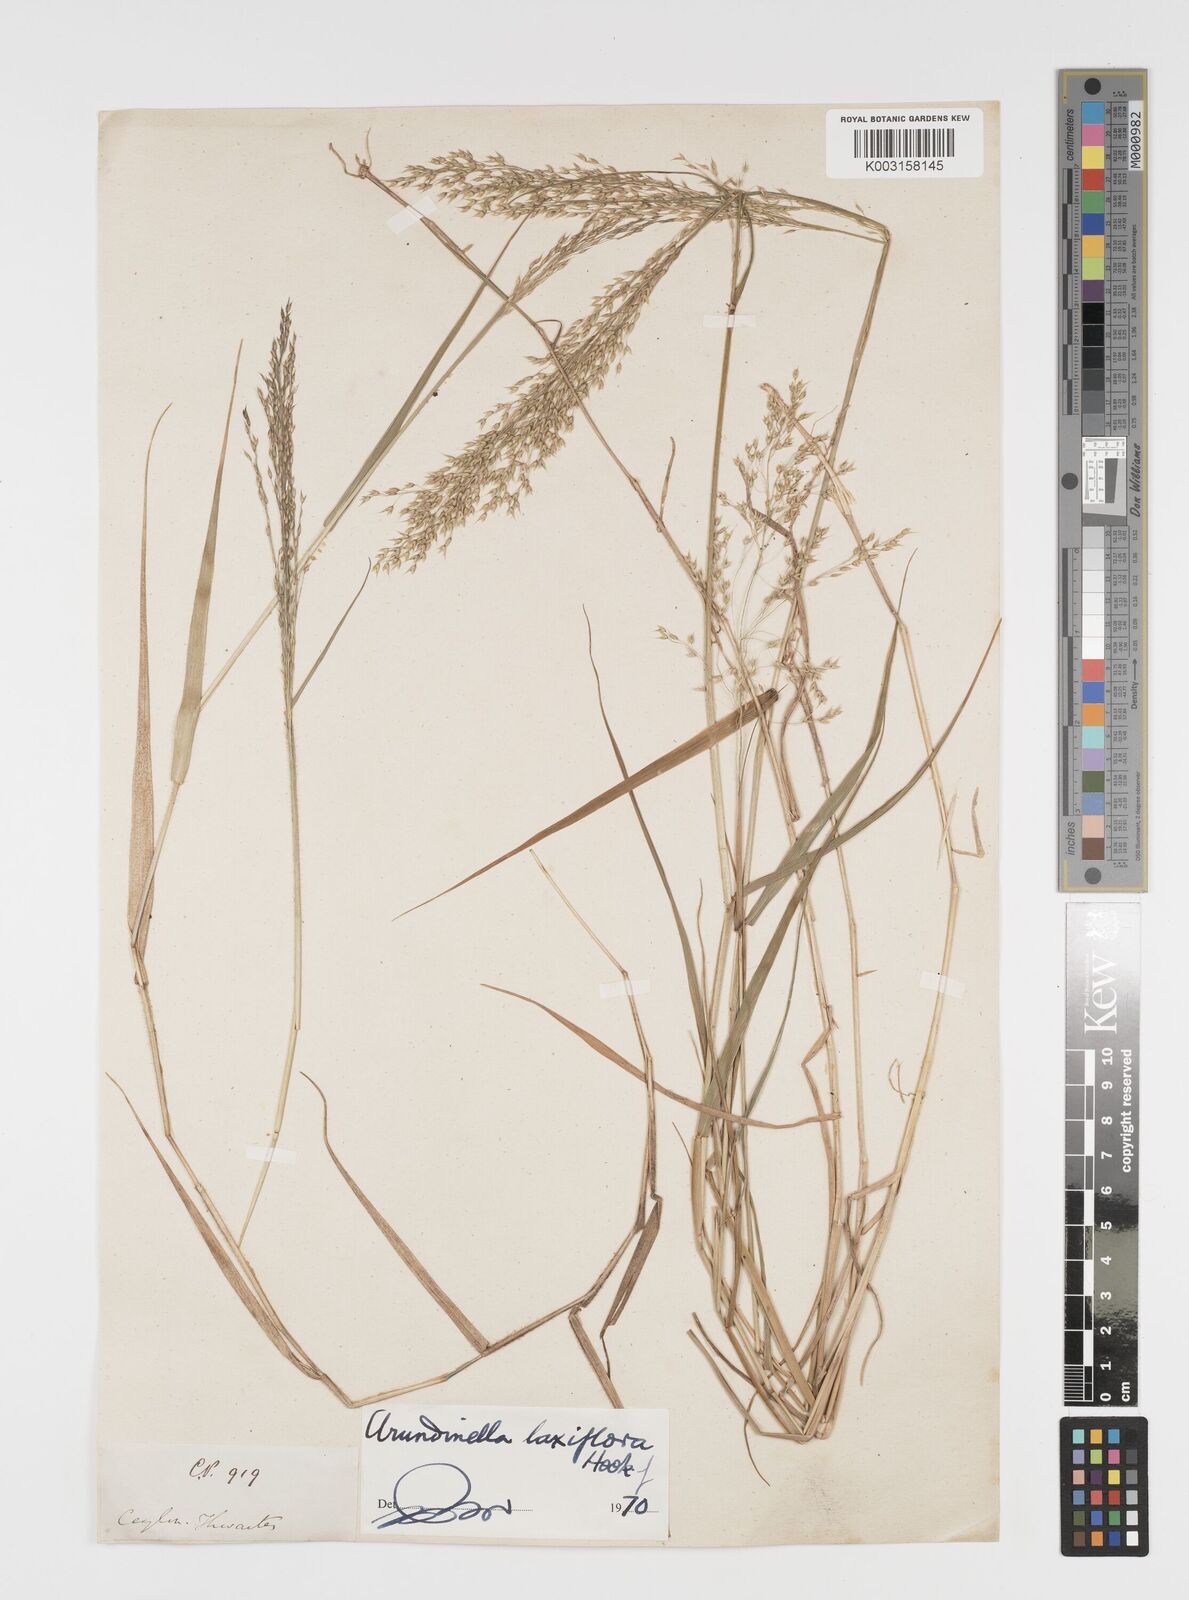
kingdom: Plantae
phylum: Tracheophyta
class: Liliopsida
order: Poales
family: Poaceae
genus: Arundinella
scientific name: Arundinella laxiflora
